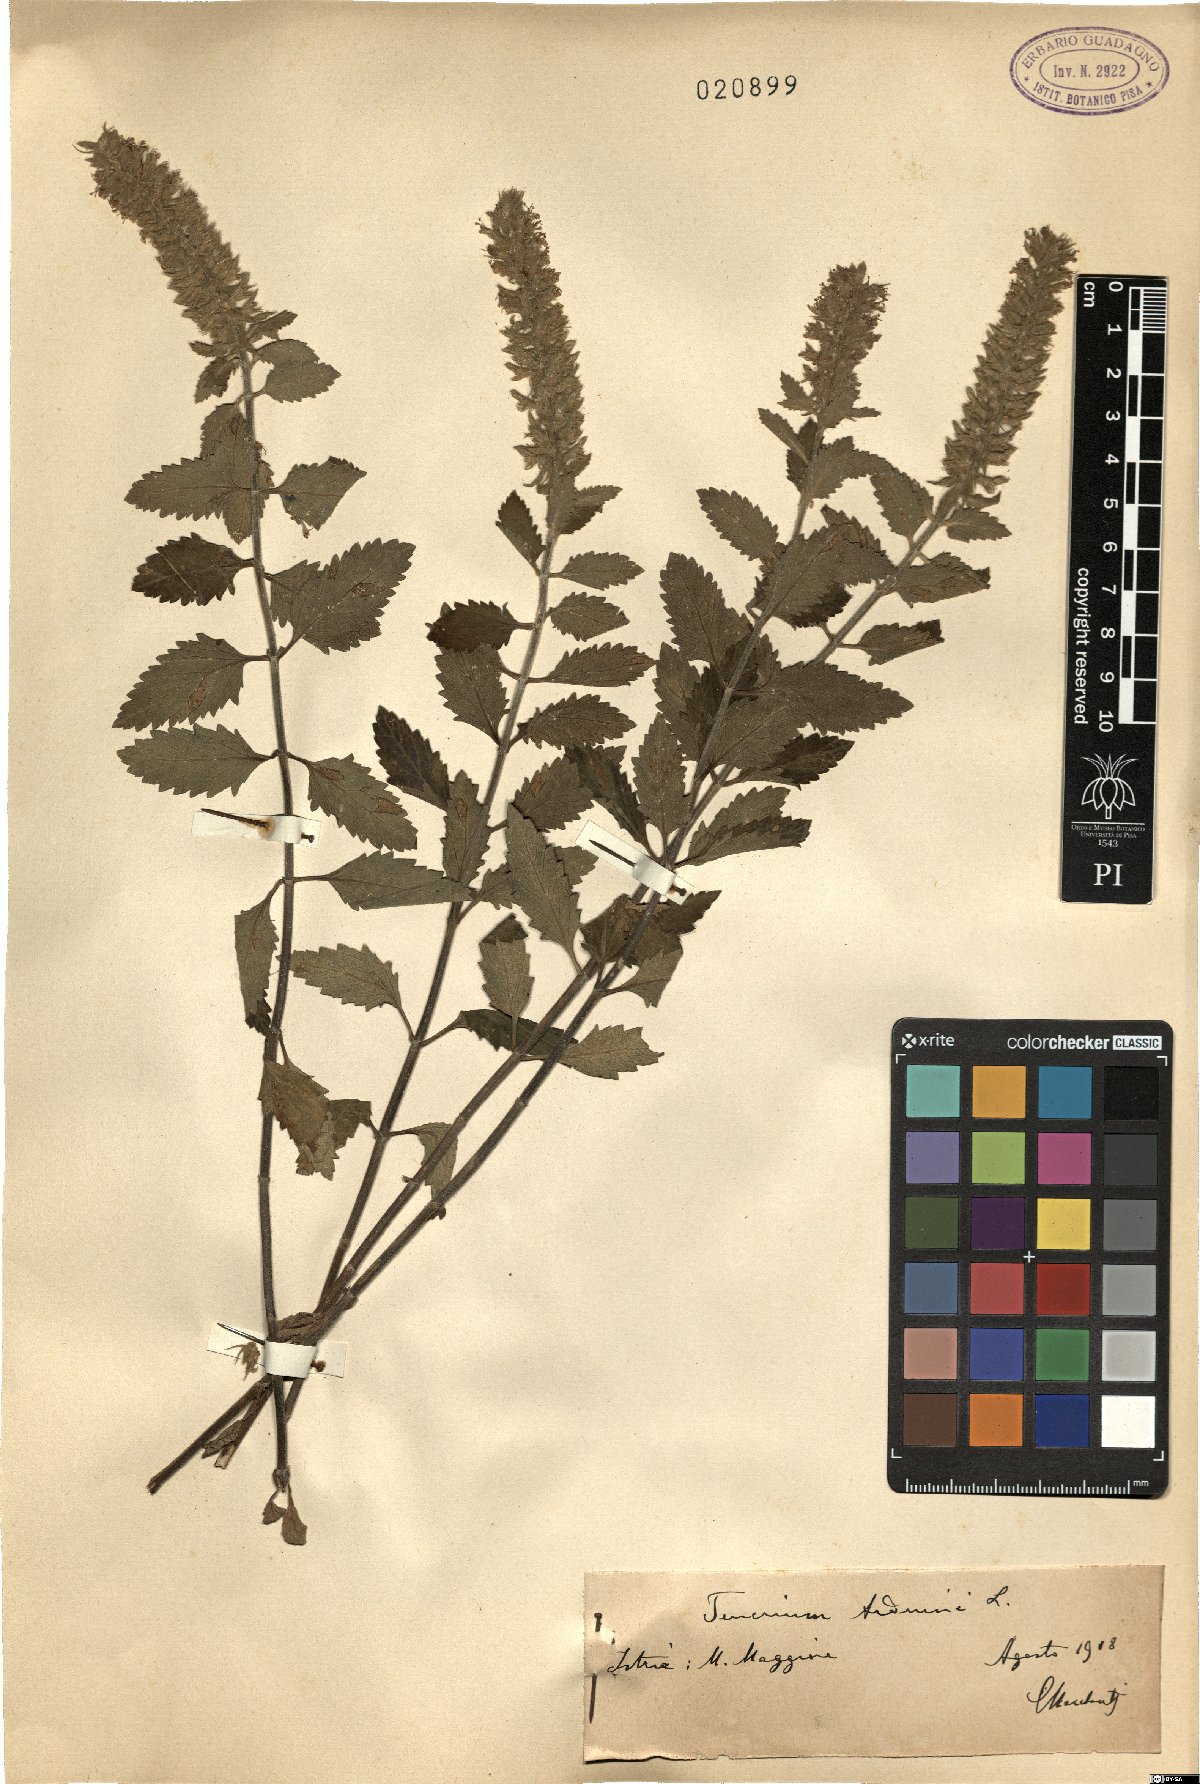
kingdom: Plantae
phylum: Tracheophyta
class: Magnoliopsida
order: Lamiales
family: Lamiaceae
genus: Teucrium
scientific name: Teucrium arduinoi
